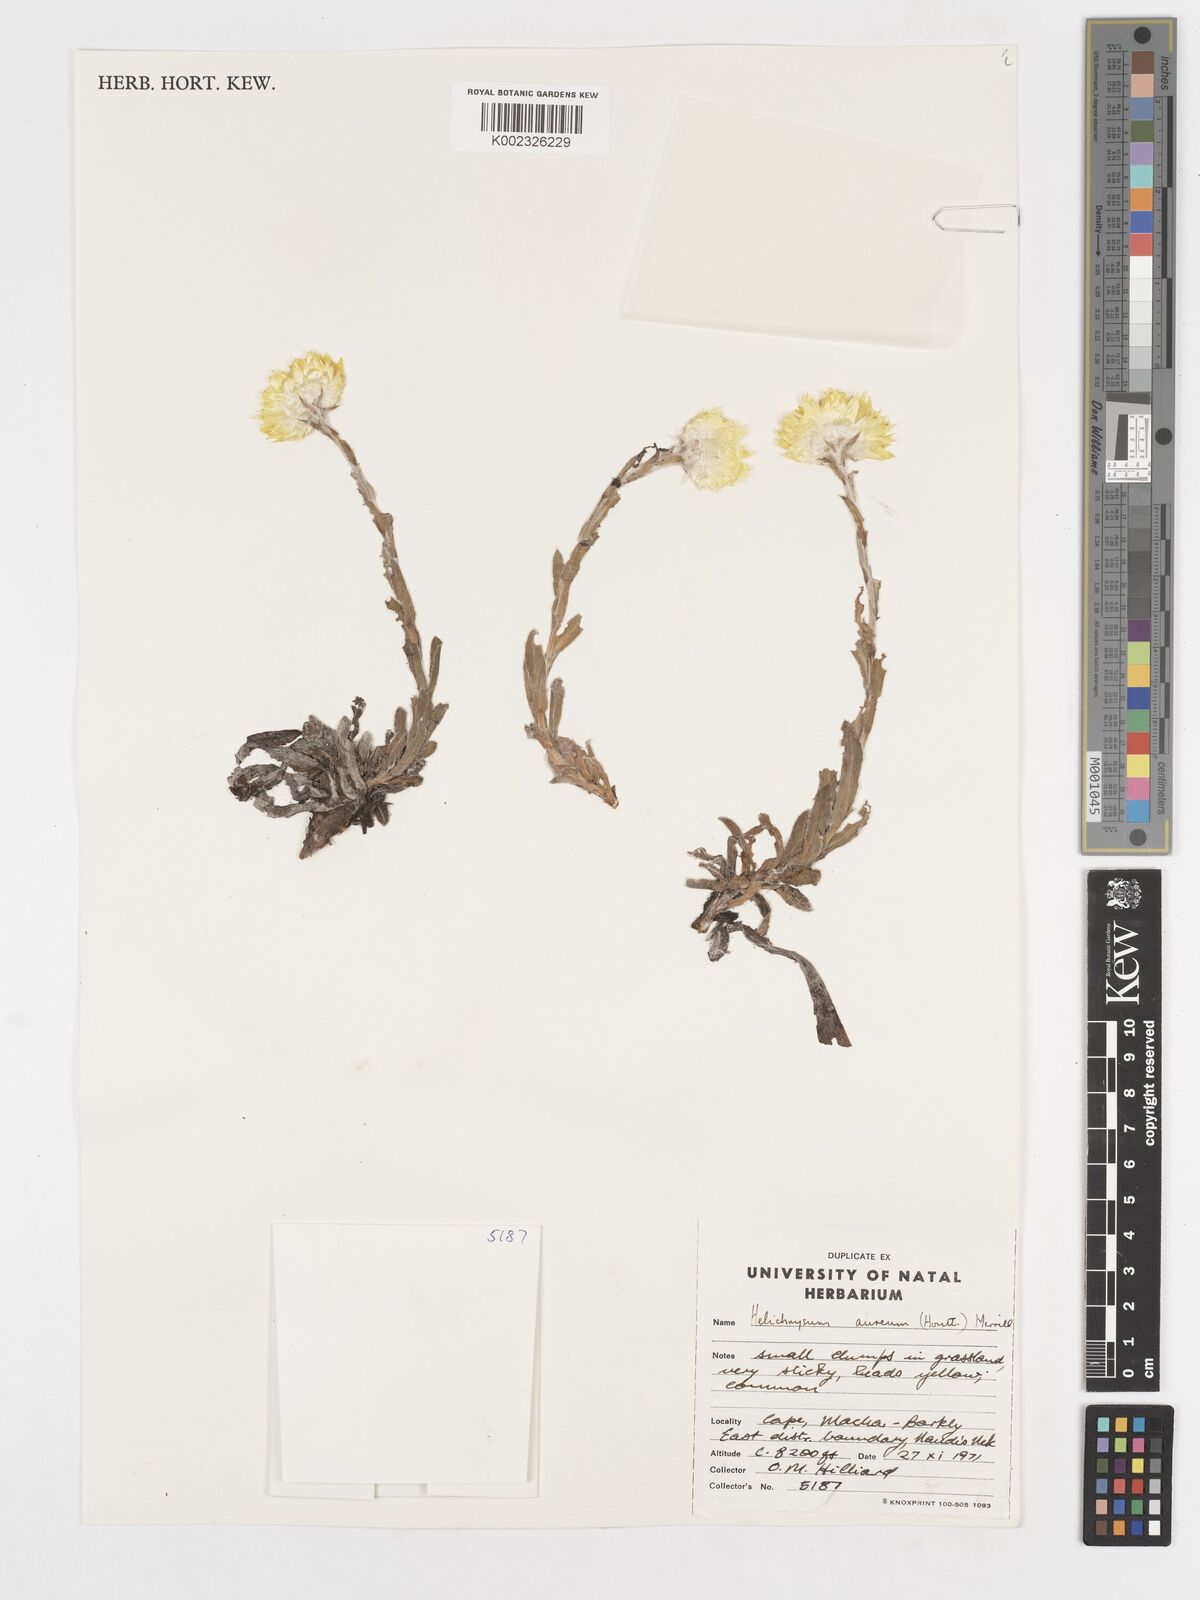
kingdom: Plantae
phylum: Tracheophyta
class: Magnoliopsida
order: Asterales
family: Asteraceae
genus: Helichrysum
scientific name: Helichrysum aureum
